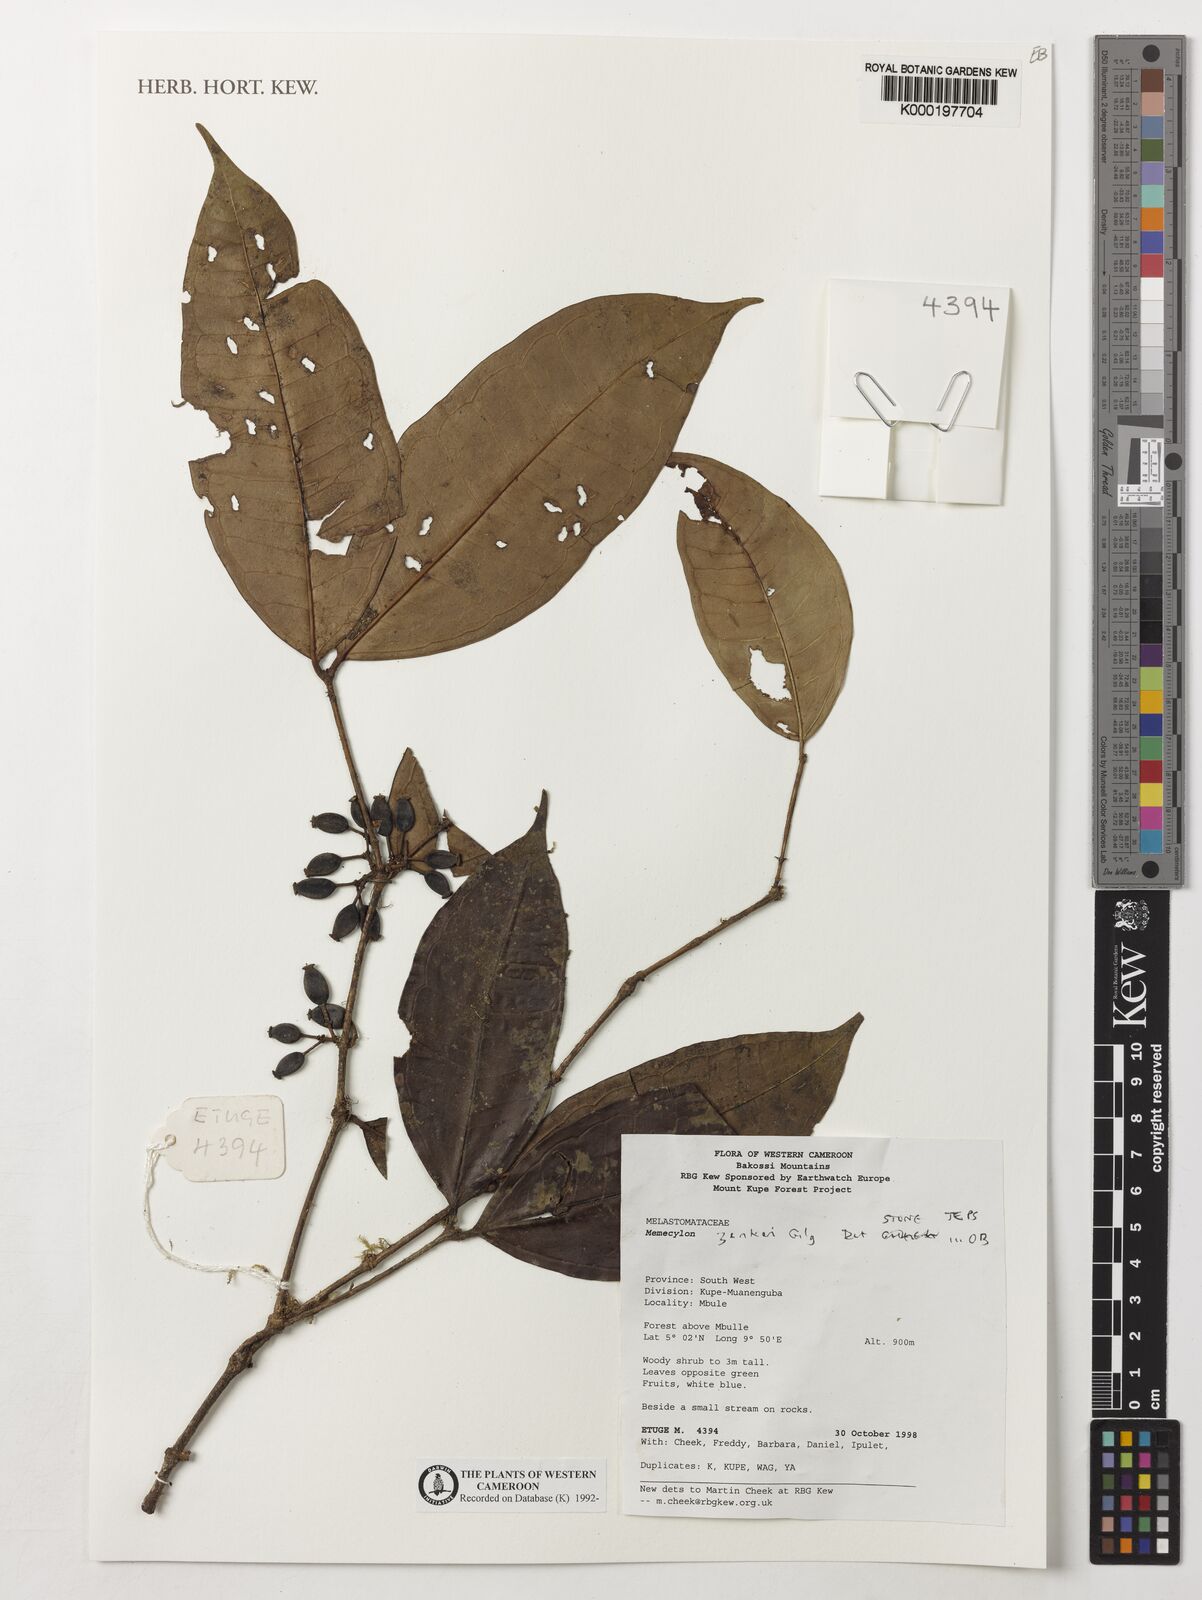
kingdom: Plantae
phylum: Tracheophyta
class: Magnoliopsida
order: Myrtales
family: Melastomataceae
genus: Memecylon
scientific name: Memecylon zenkeri
